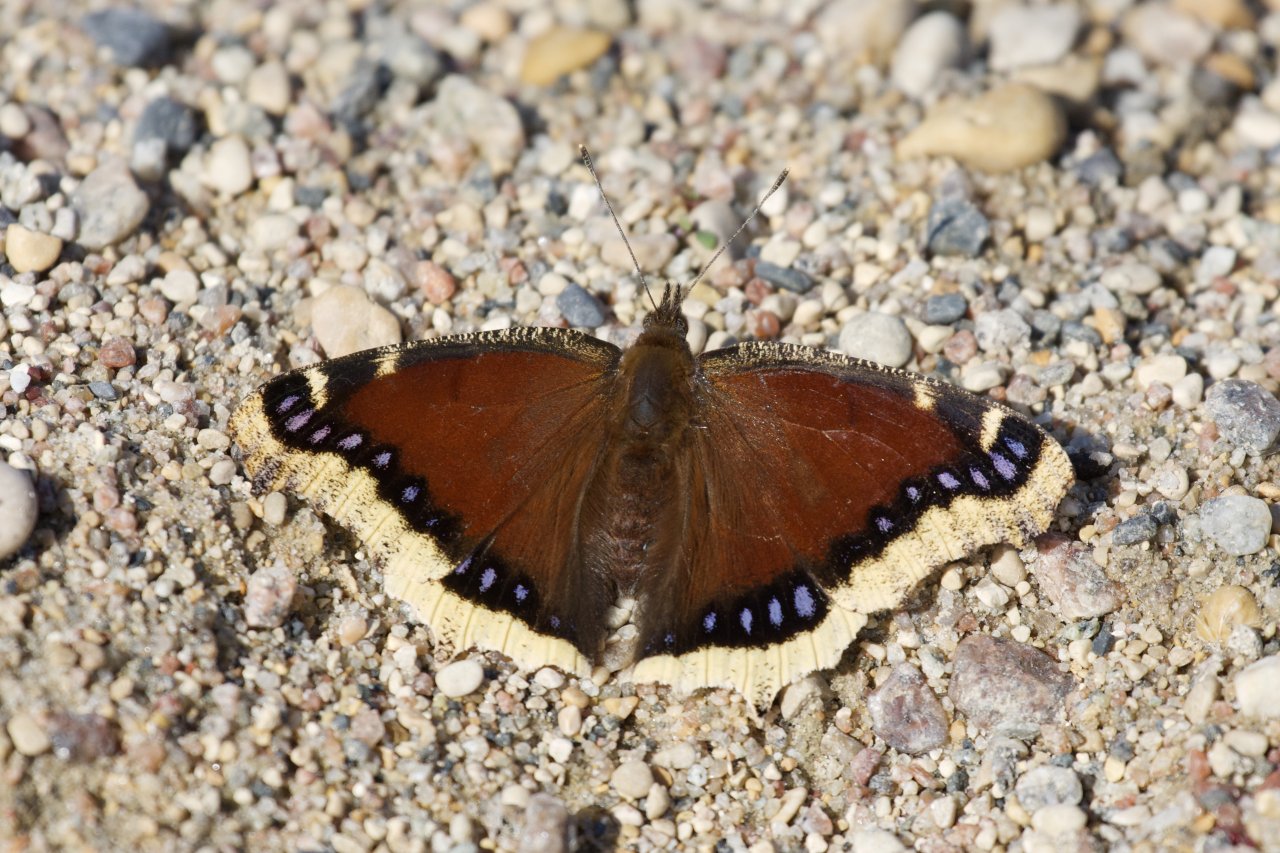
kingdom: Animalia
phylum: Arthropoda
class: Insecta
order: Lepidoptera
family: Nymphalidae
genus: Nymphalis
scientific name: Nymphalis antiopa
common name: Mourning Cloak
